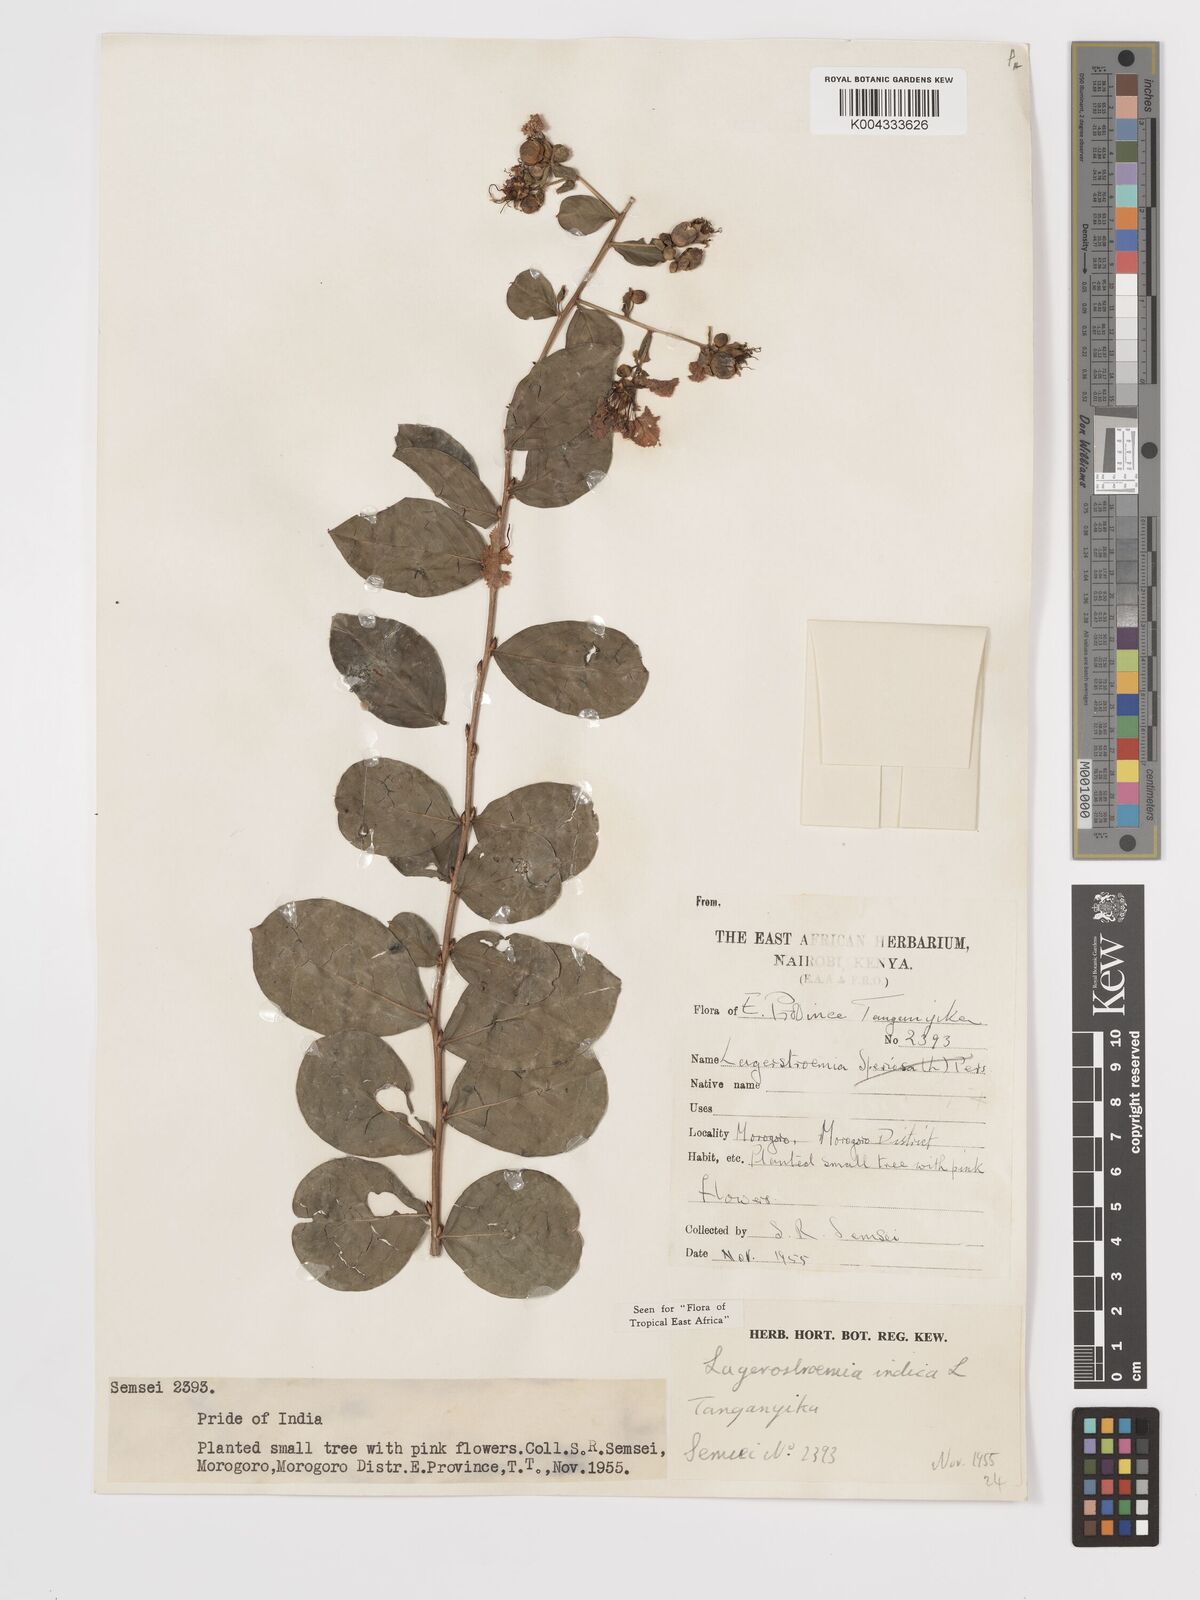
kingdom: Plantae
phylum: Tracheophyta
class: Magnoliopsida
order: Myrtales
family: Lythraceae
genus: Lagerstroemia
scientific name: Lagerstroemia indica
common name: Crape-myrtle
